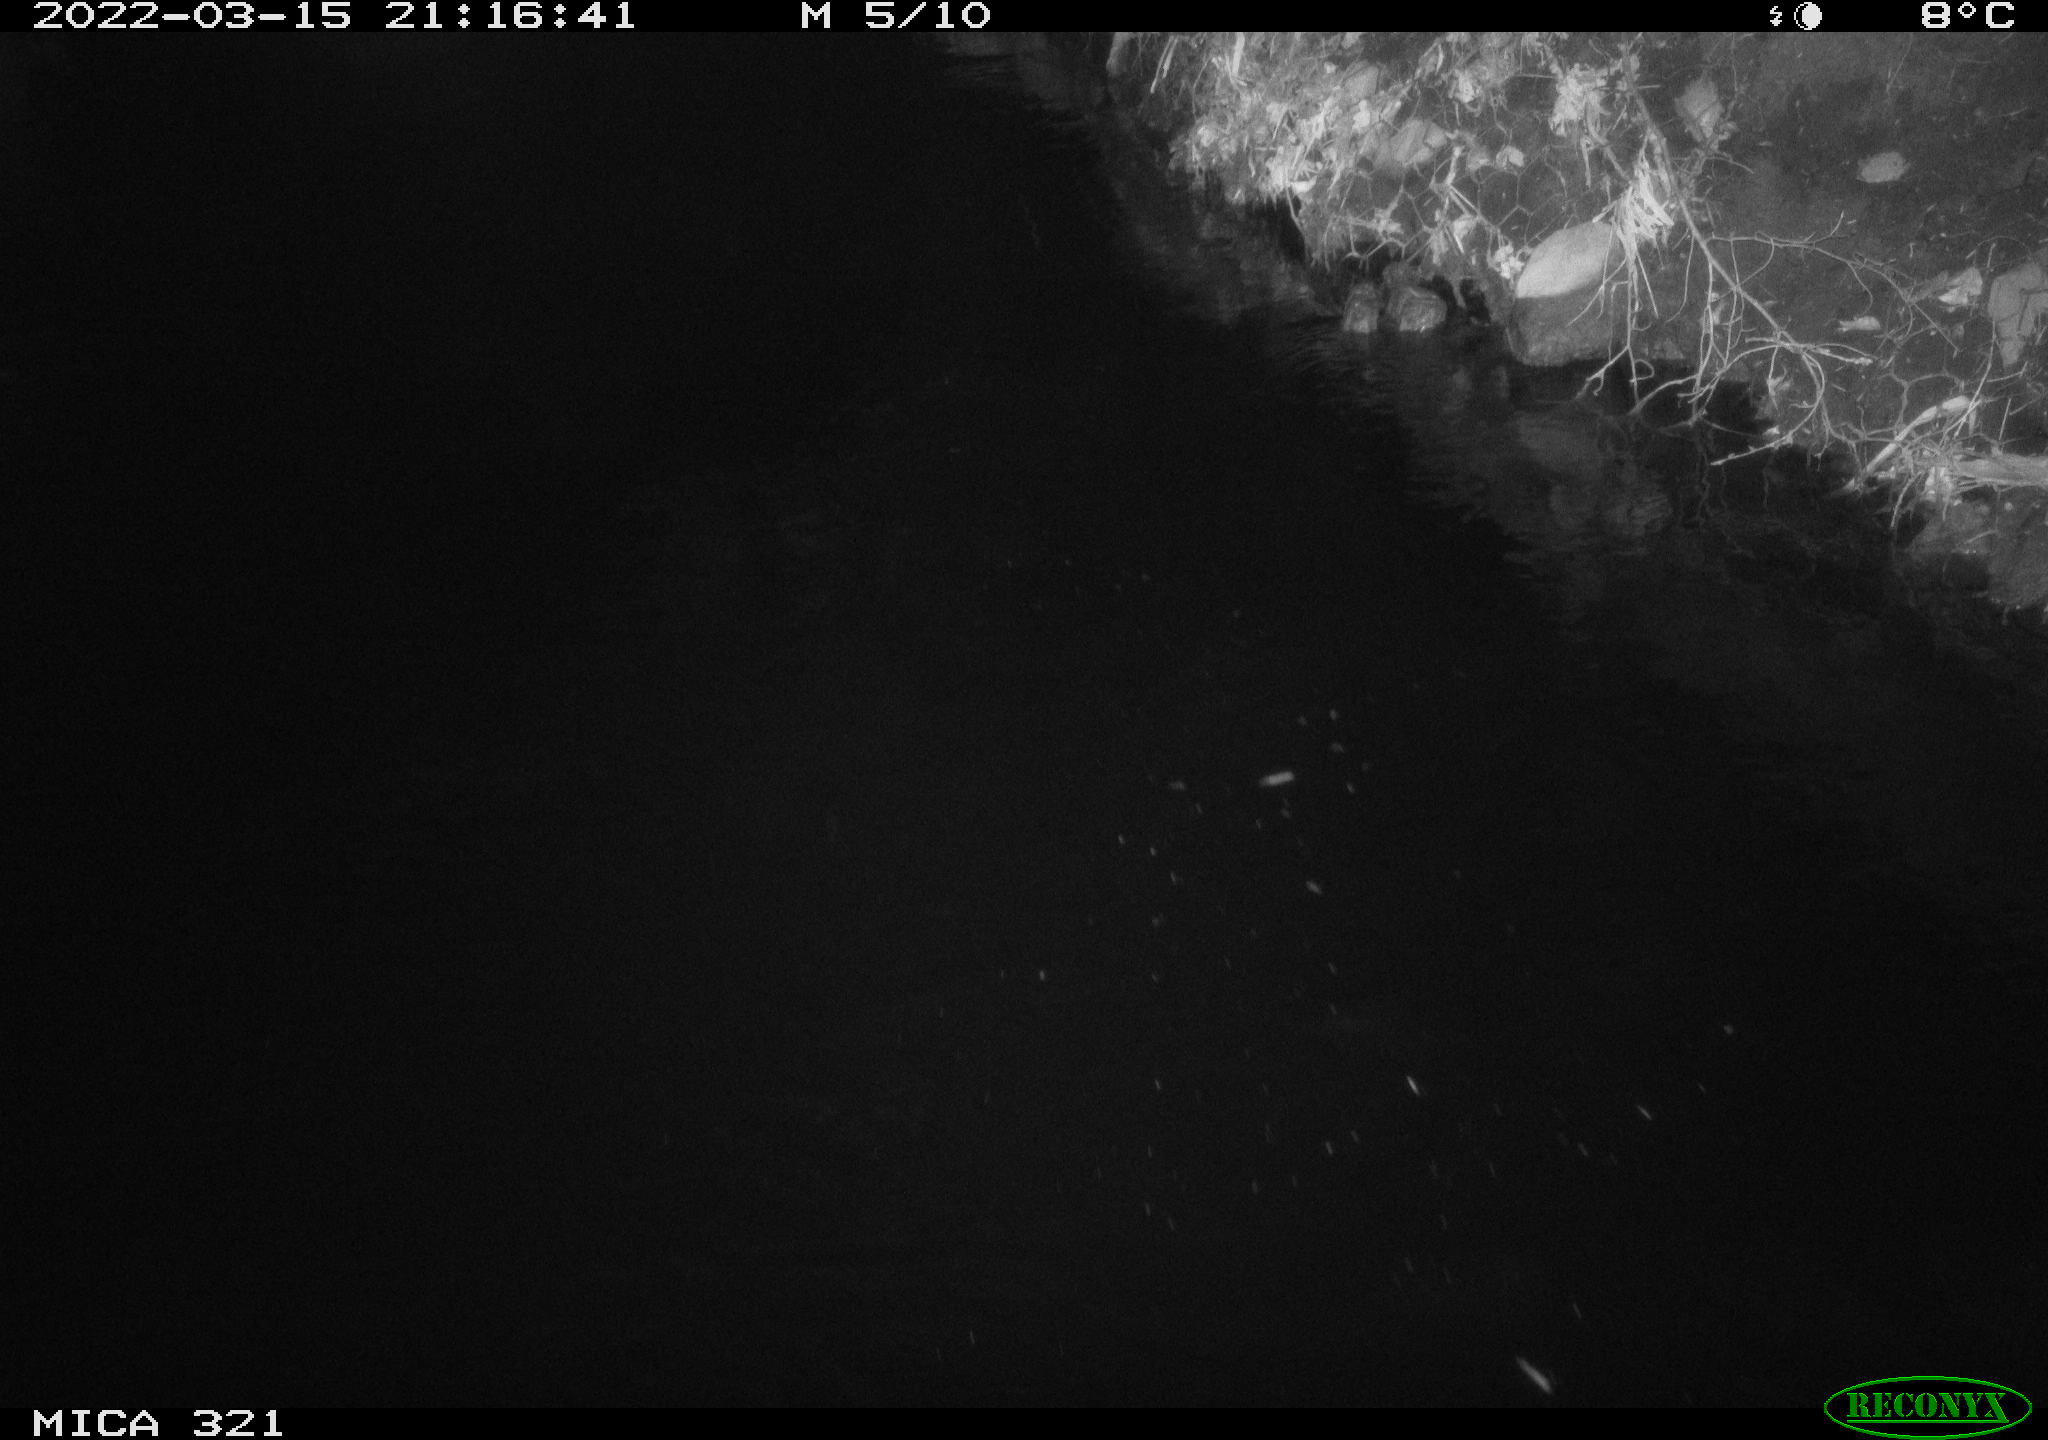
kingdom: Animalia
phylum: Chordata
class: Aves
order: Anseriformes
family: Anatidae
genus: Anas
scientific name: Anas platyrhynchos
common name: Mallard
